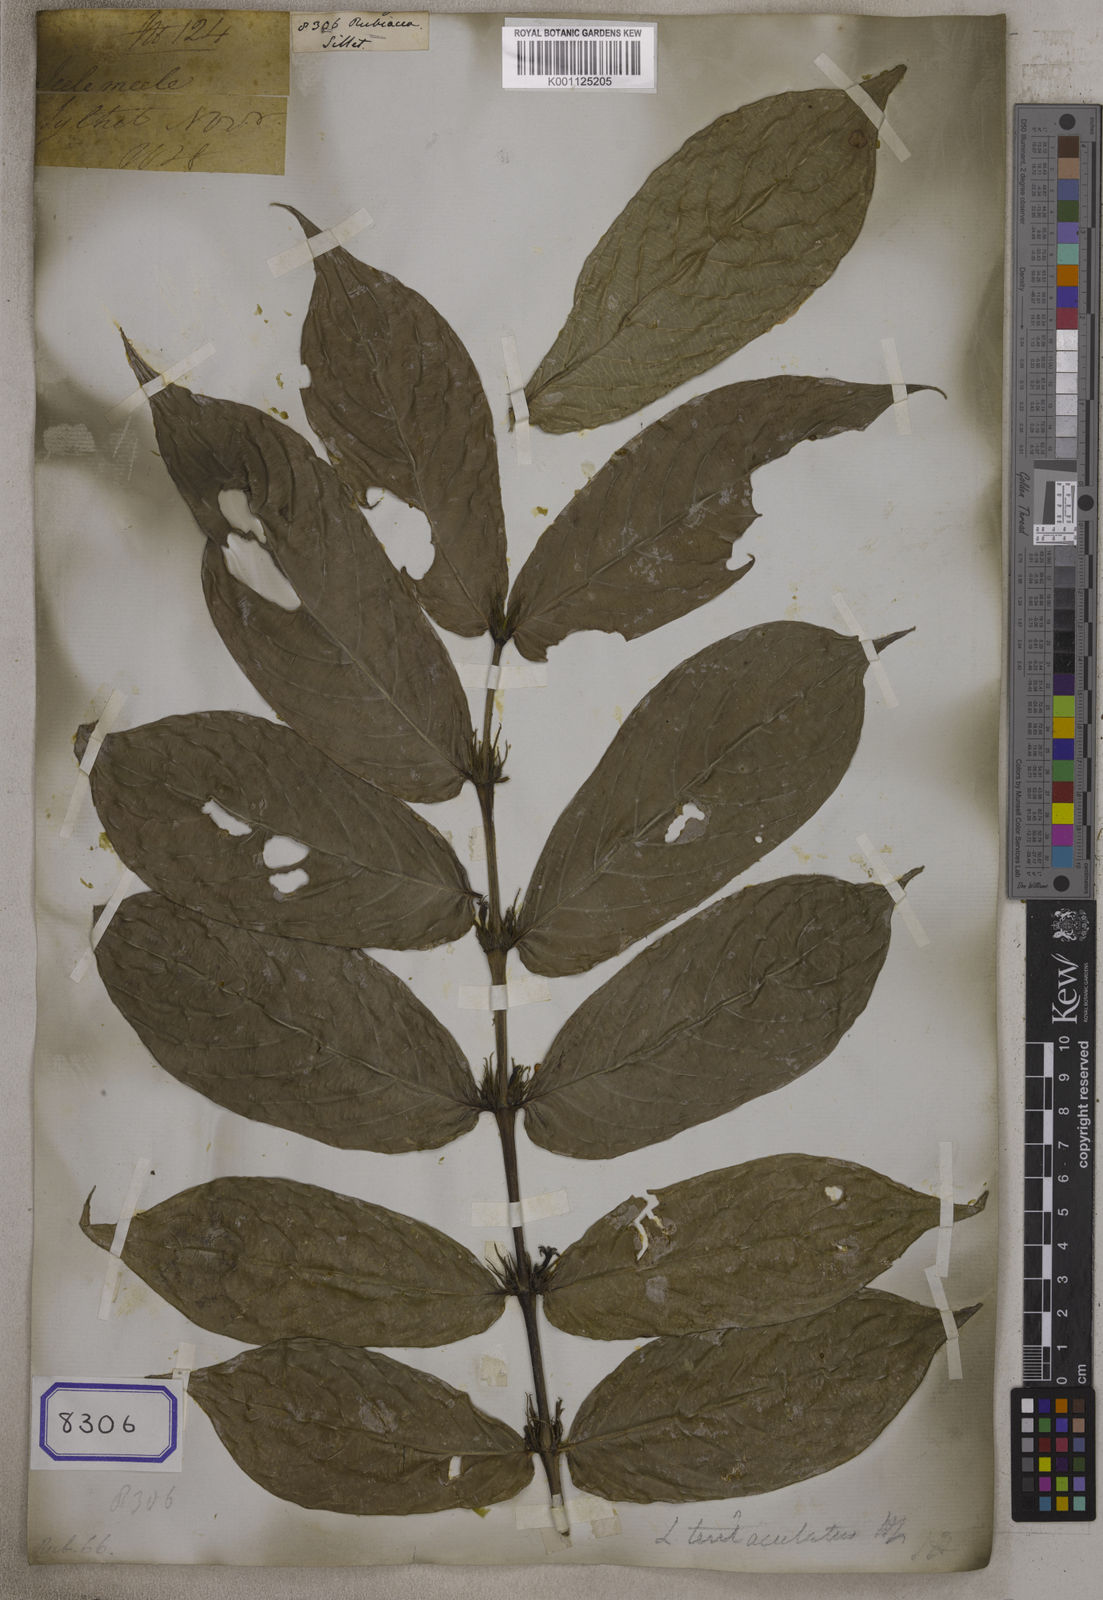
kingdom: Plantae
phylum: Tracheophyta
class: Magnoliopsida
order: Gentianales
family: Rubiaceae
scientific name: Rubiaceae
